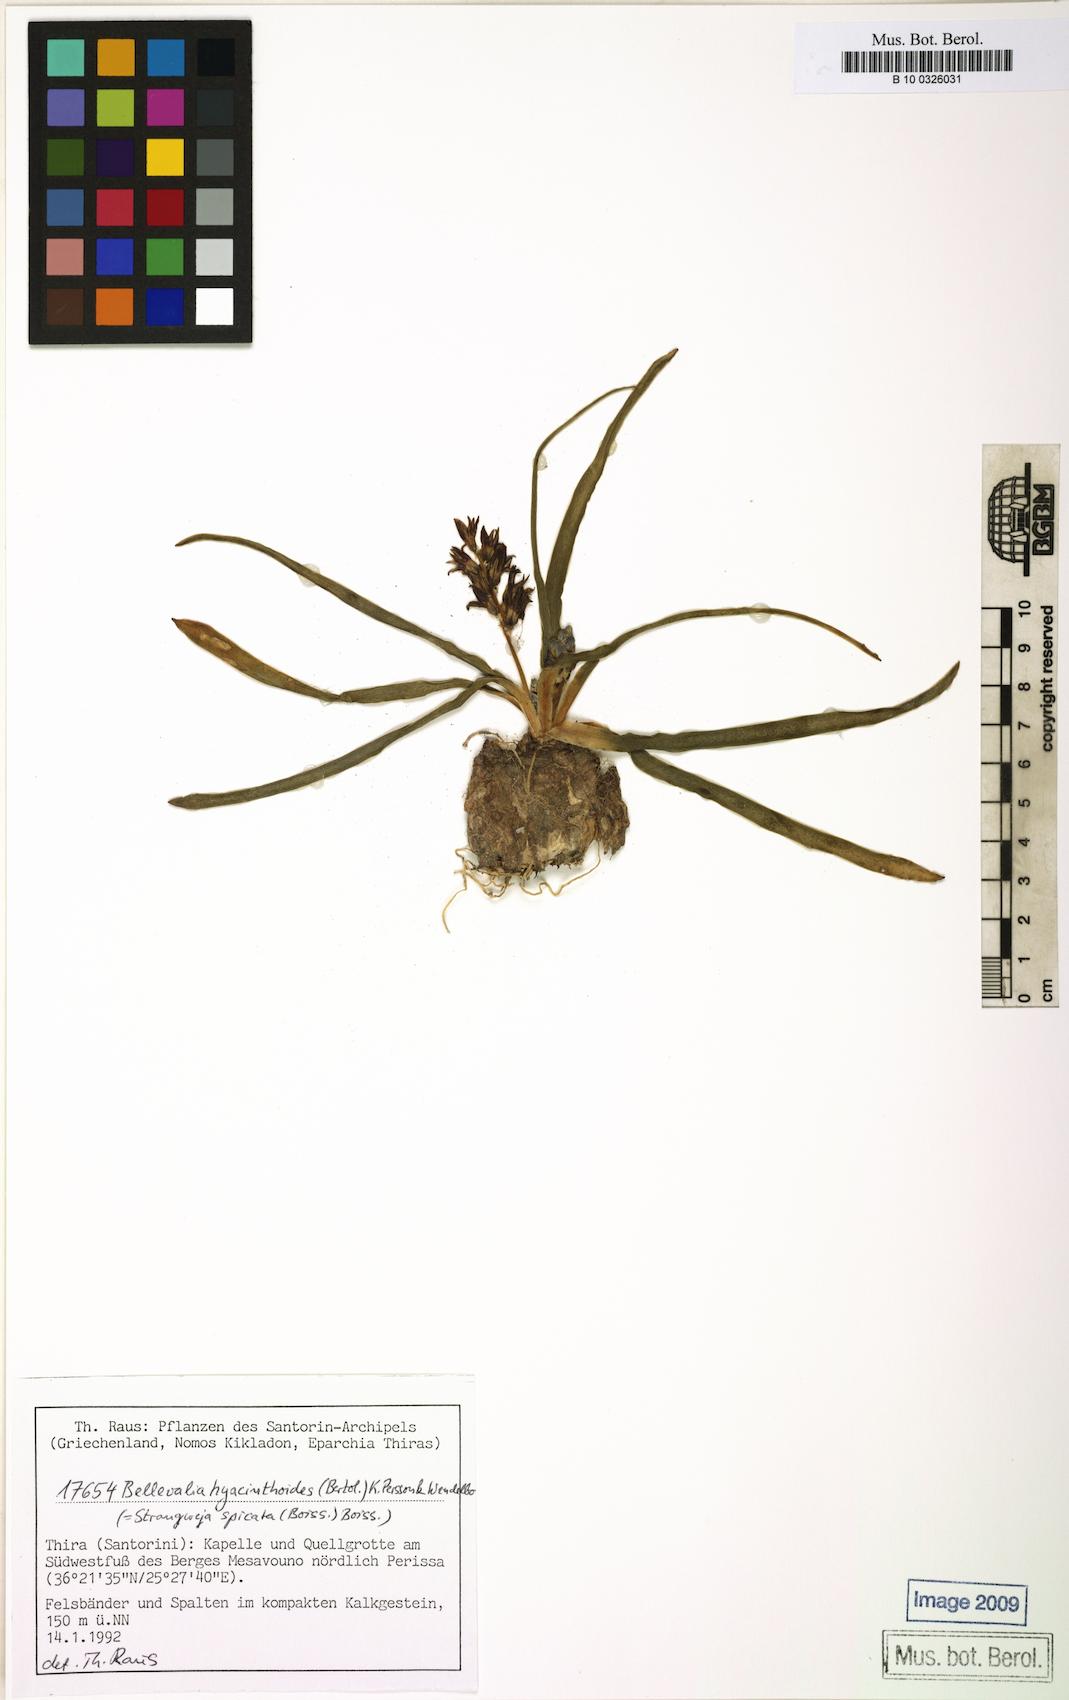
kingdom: Plantae
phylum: Tracheophyta
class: Liliopsida
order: Asparagales
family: Asparagaceae
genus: Bellevalia
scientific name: Bellevalia hyacinthoides
